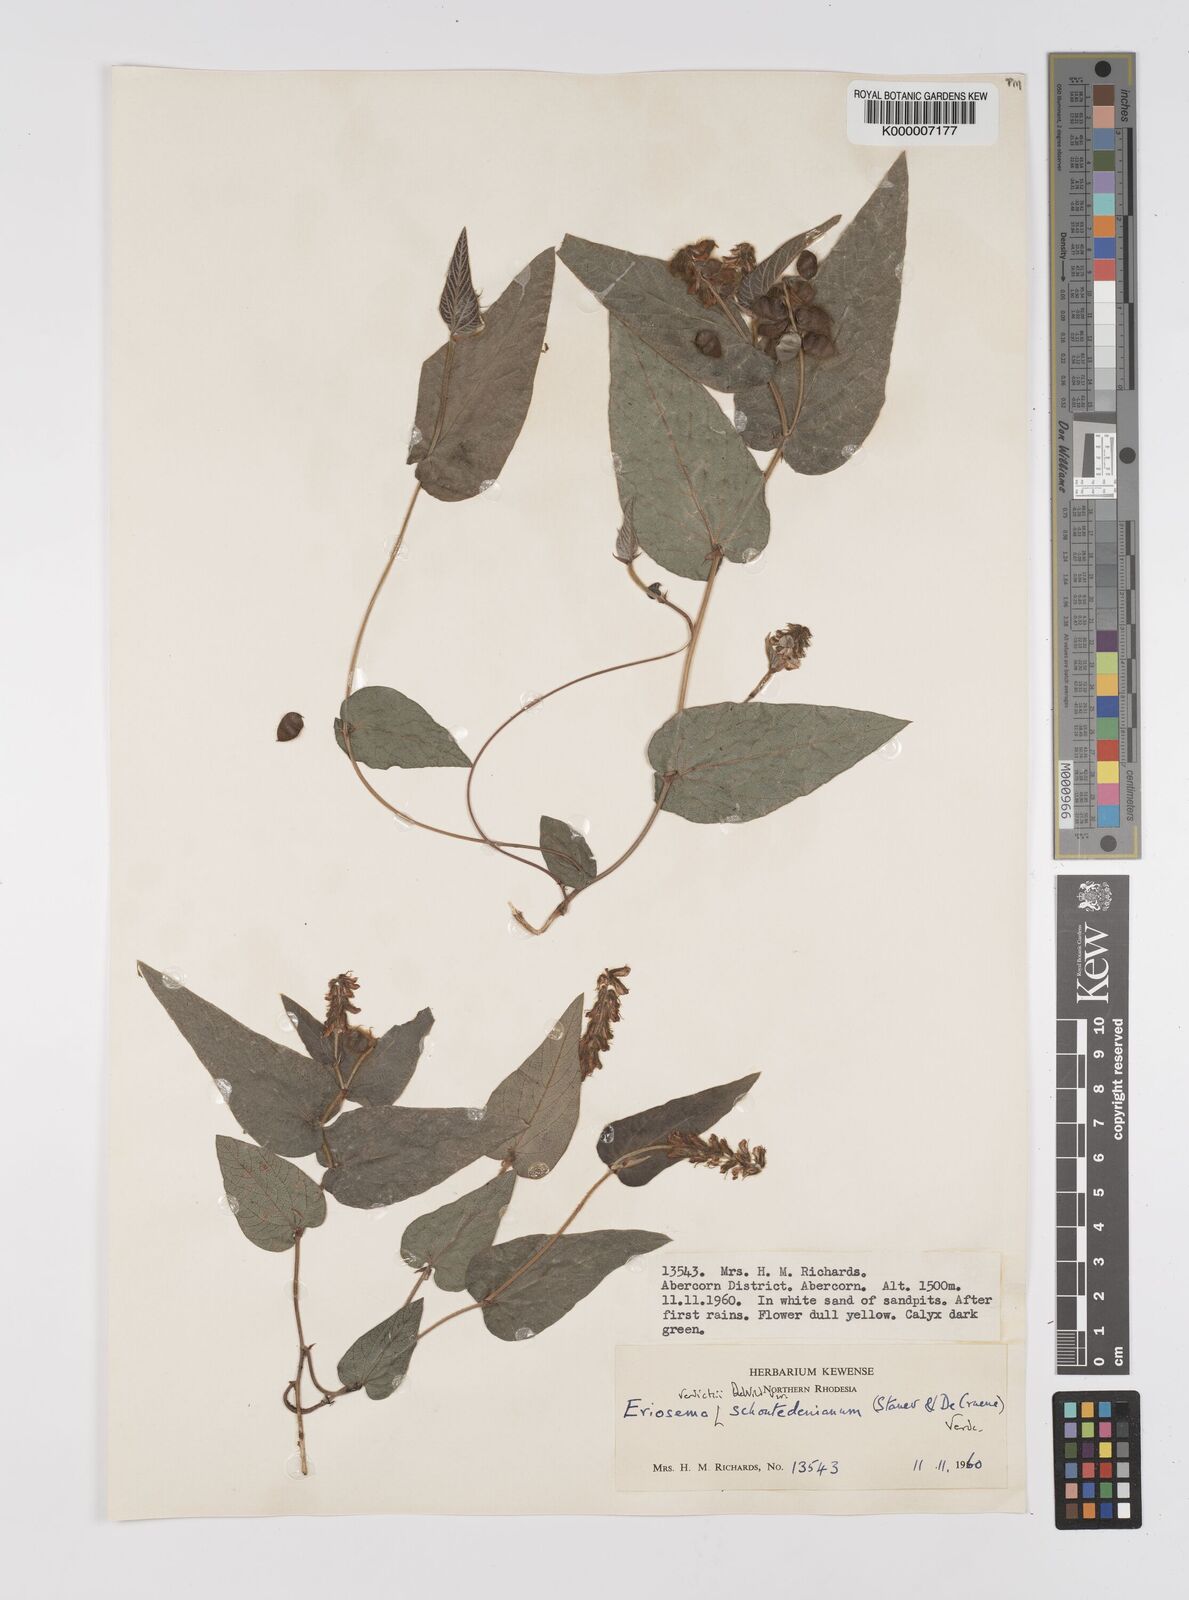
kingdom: Plantae
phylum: Tracheophyta
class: Magnoliopsida
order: Fabales
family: Fabaceae
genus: Eriosema
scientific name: Eriosema verdickii
